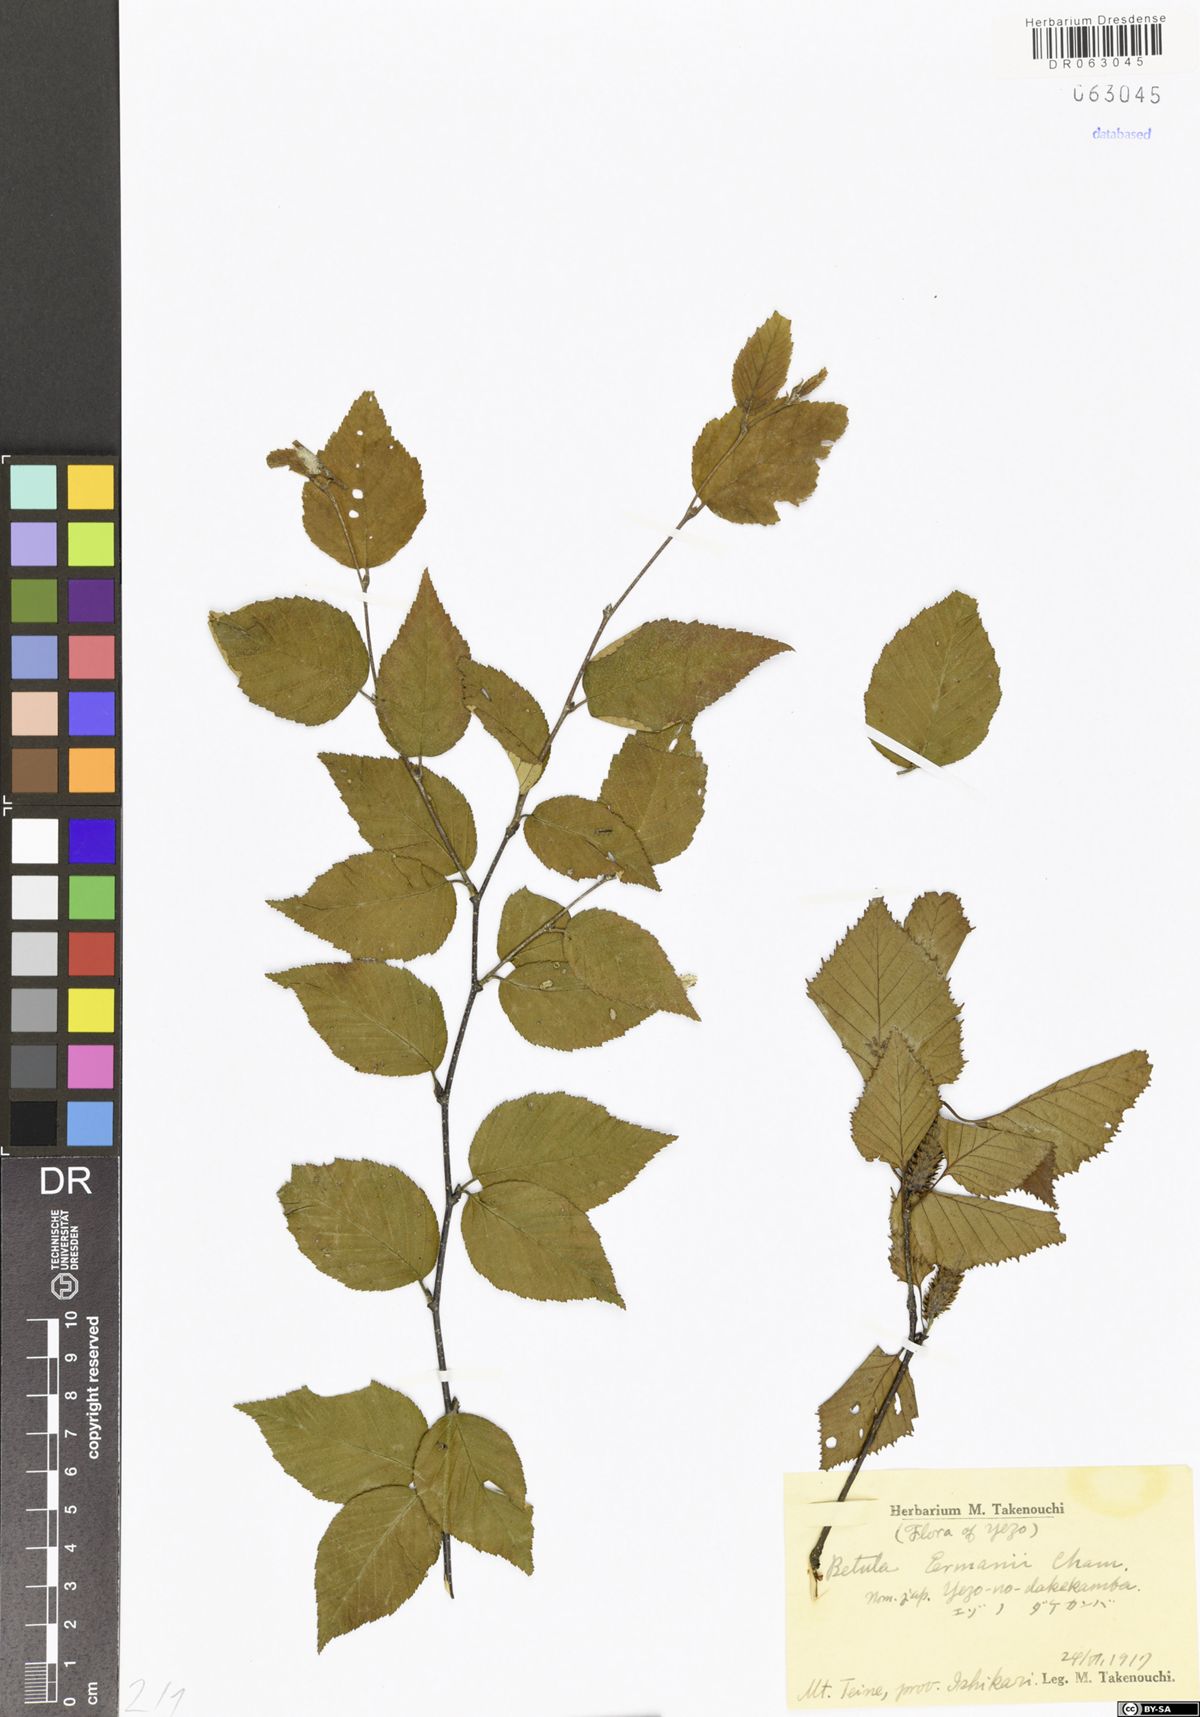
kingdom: Plantae
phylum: Tracheophyta
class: Magnoliopsida
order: Fagales
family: Betulaceae
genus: Betula
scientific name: Betula ermanii
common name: Erman's birch
